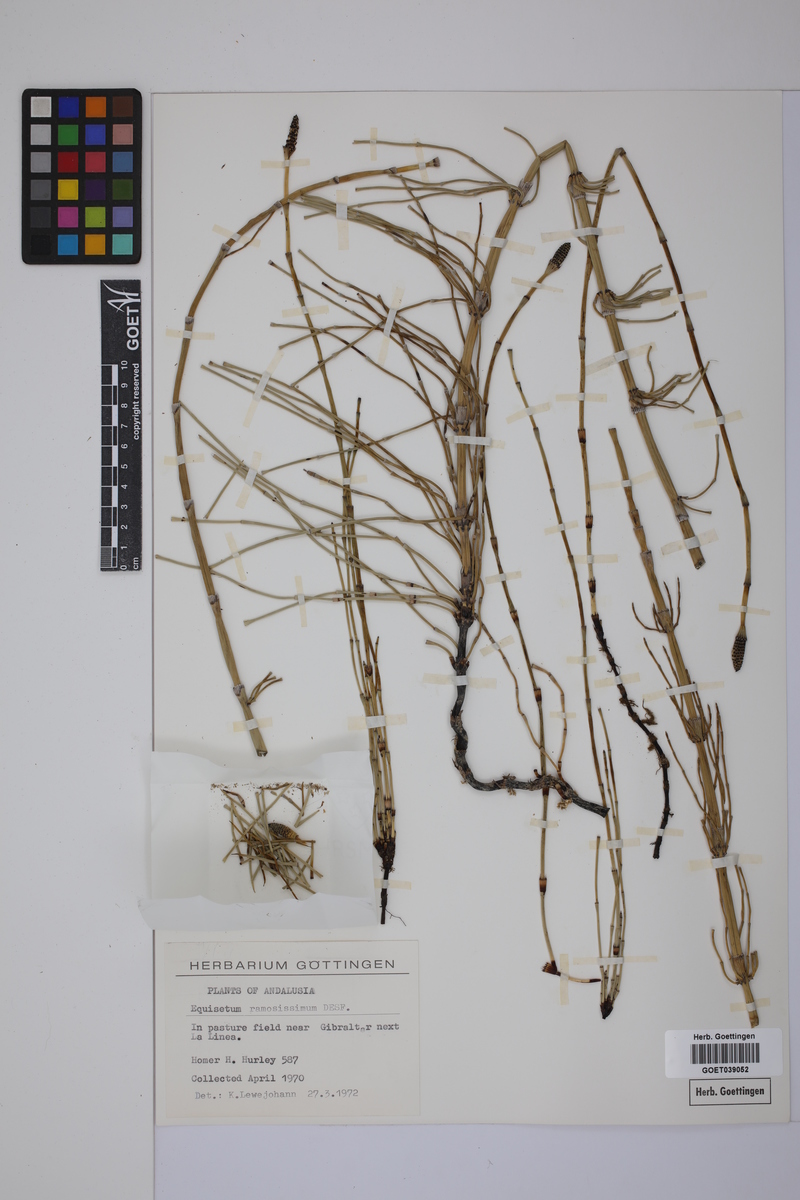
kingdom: Plantae
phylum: Tracheophyta
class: Polypodiopsida
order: Equisetales
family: Equisetaceae
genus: Equisetum
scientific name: Equisetum giganteum
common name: Giant horsetail
